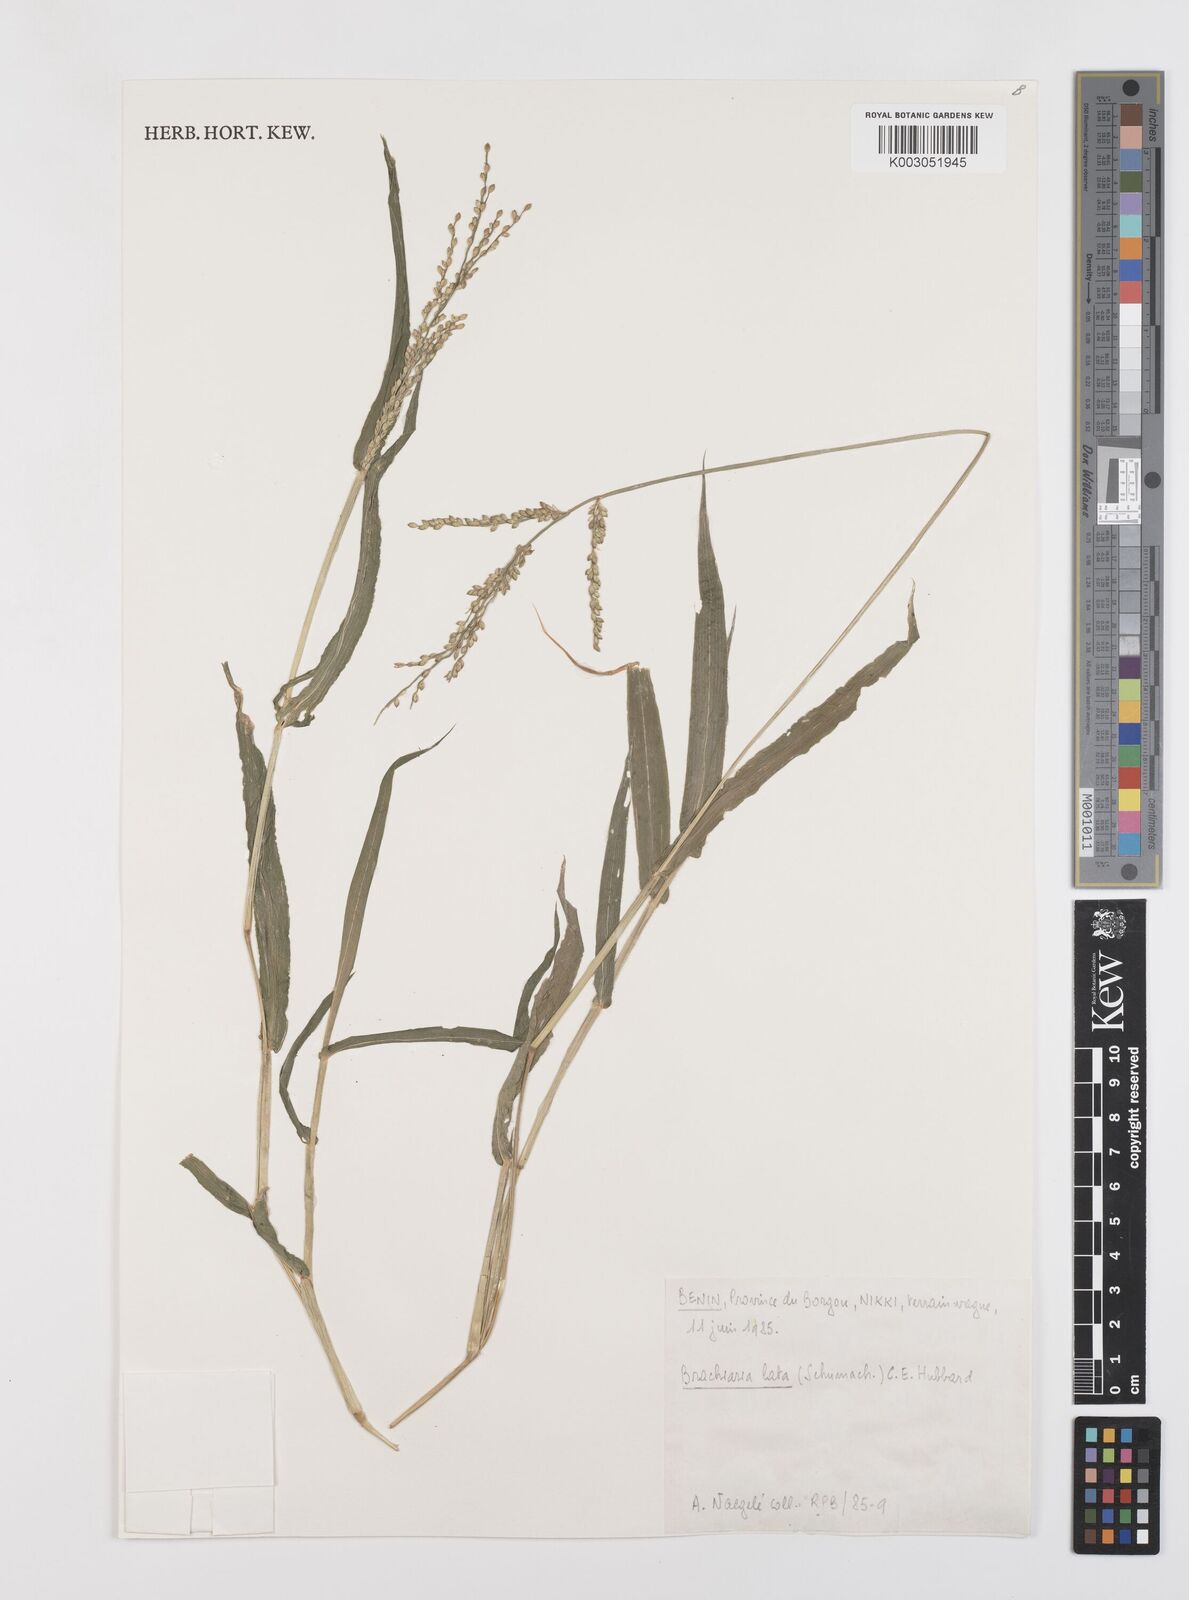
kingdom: Plantae
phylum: Tracheophyta
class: Liliopsida
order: Poales
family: Poaceae
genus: Urochloa
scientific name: Urochloa lata
